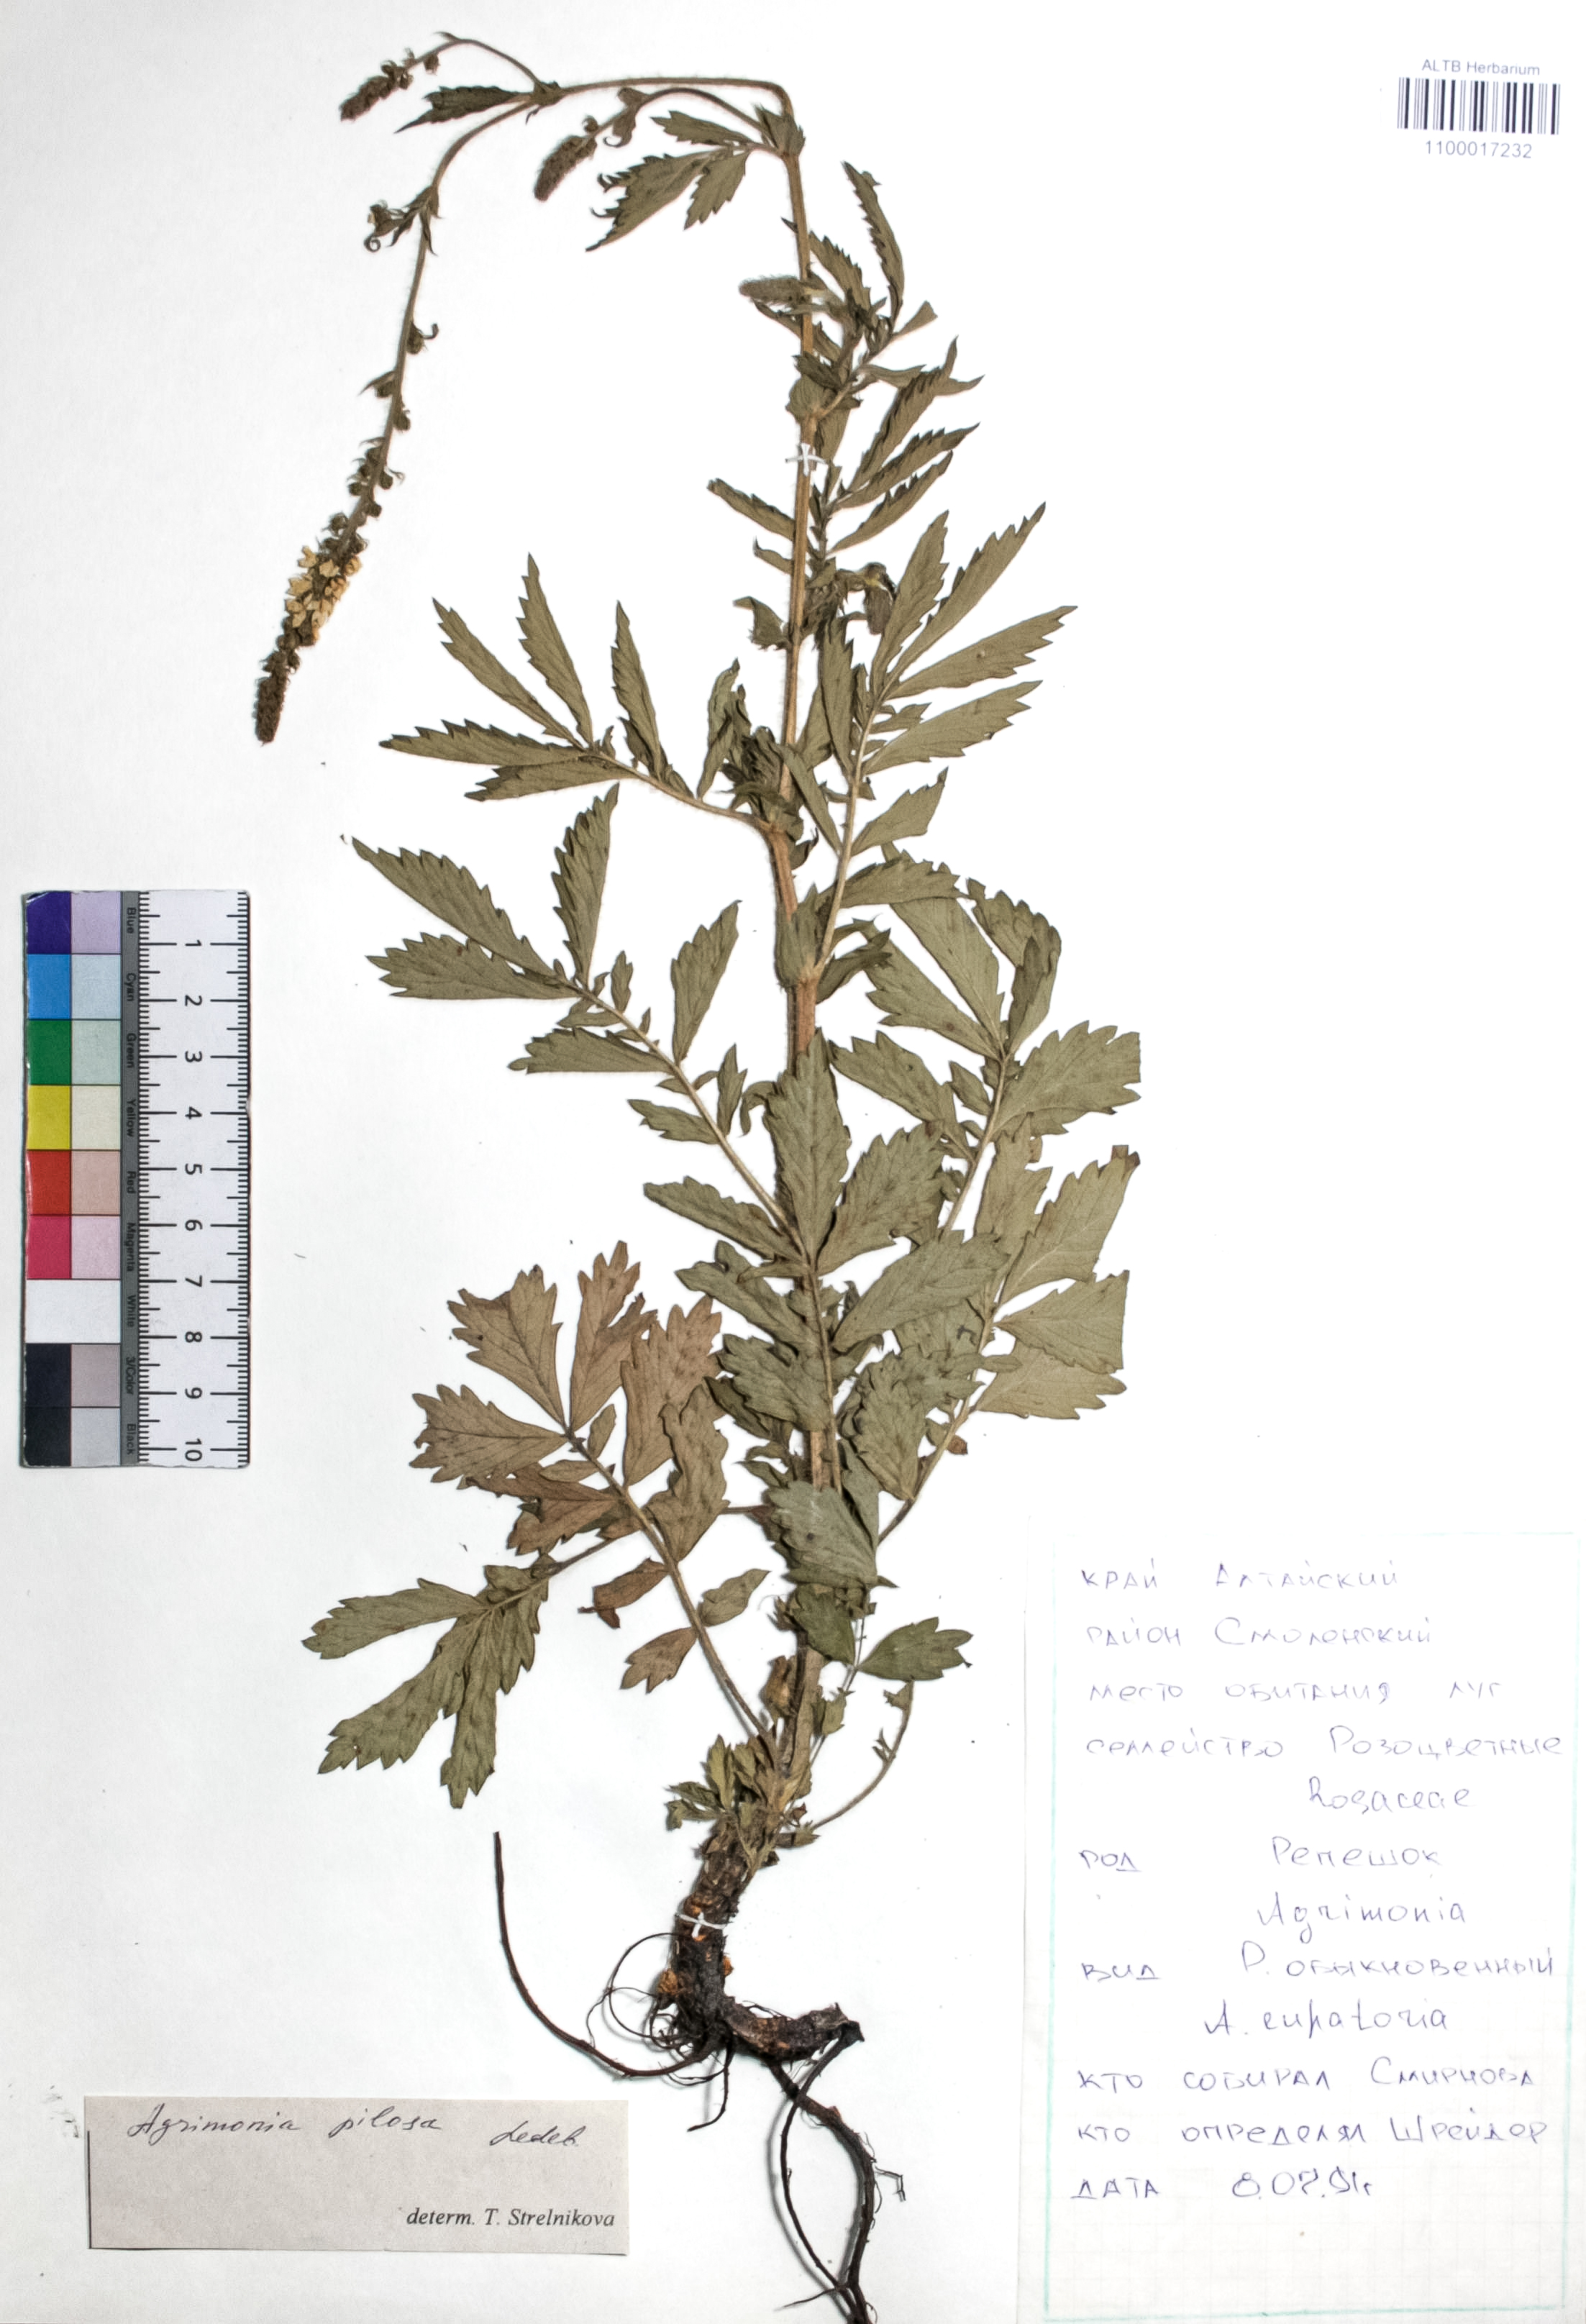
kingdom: Plantae
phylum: Tracheophyta
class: Magnoliopsida
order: Rosales
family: Rosaceae
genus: Agrimonia
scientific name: Agrimonia pilosa
